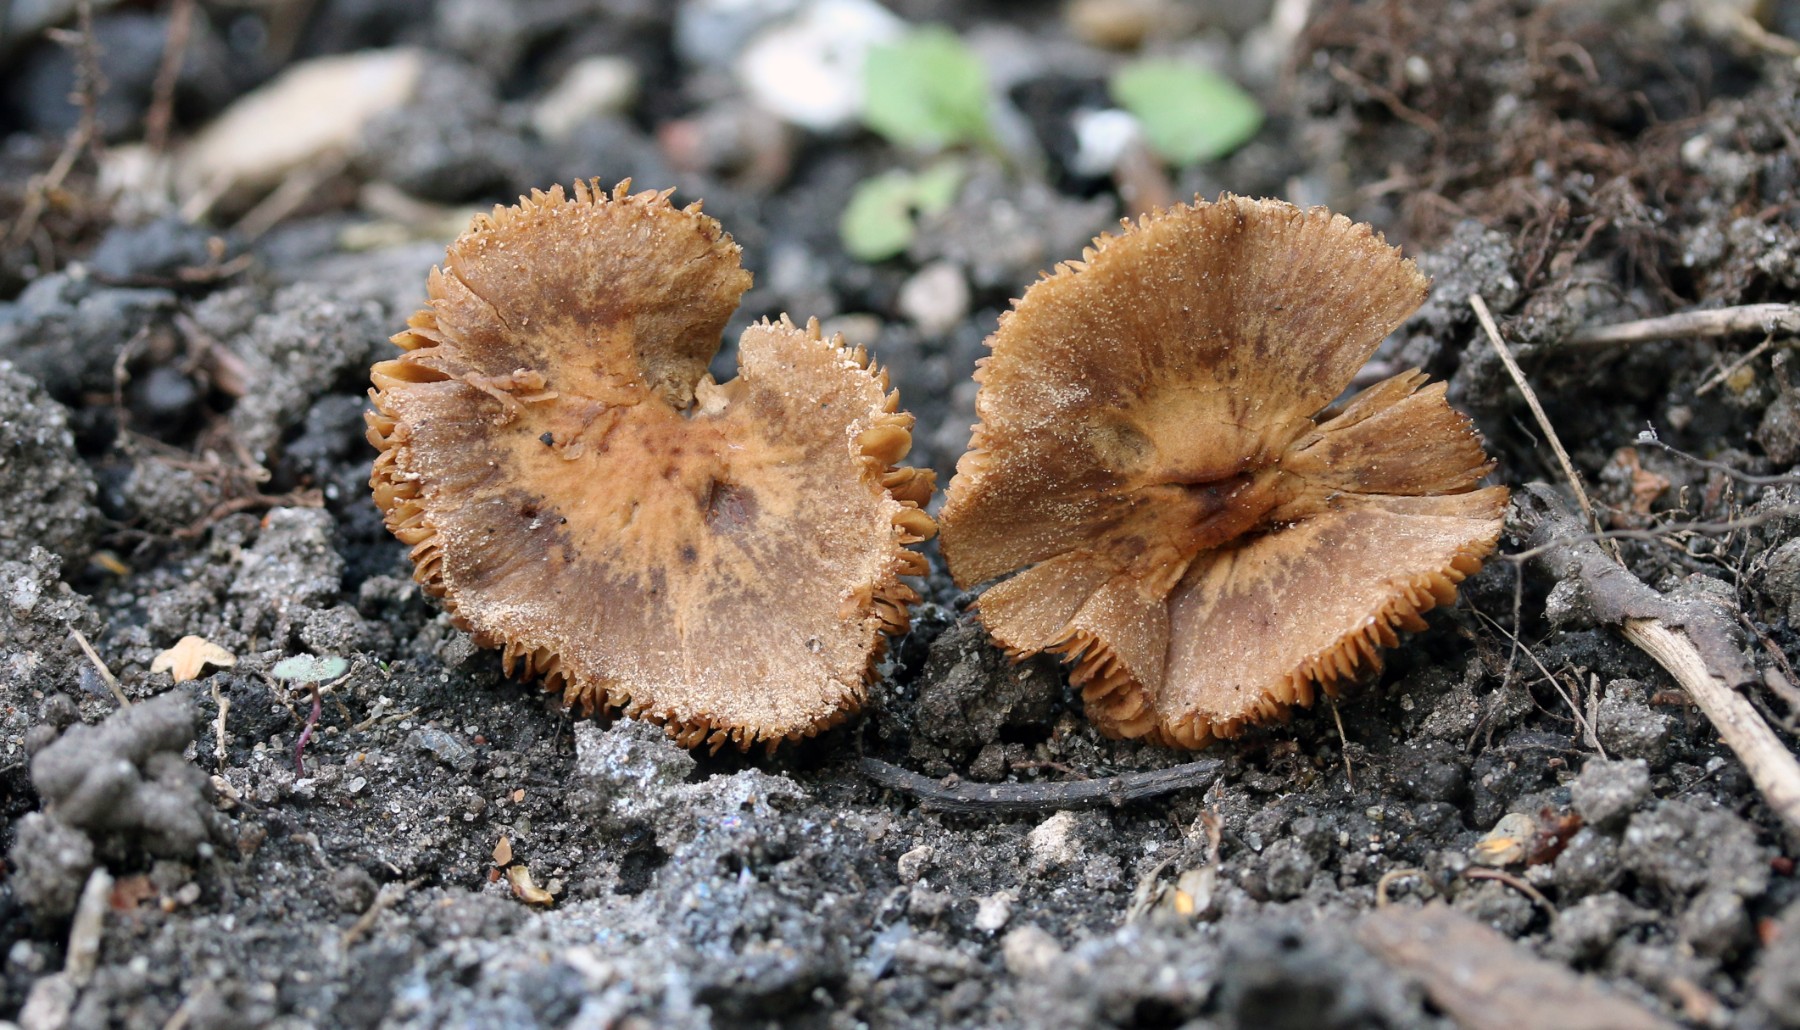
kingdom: Fungi
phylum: Basidiomycota
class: Agaricomycetes
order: Agaricales
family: Hymenogastraceae
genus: Naucoria
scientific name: Naucoria escharioides
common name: lys elle-knaphat
